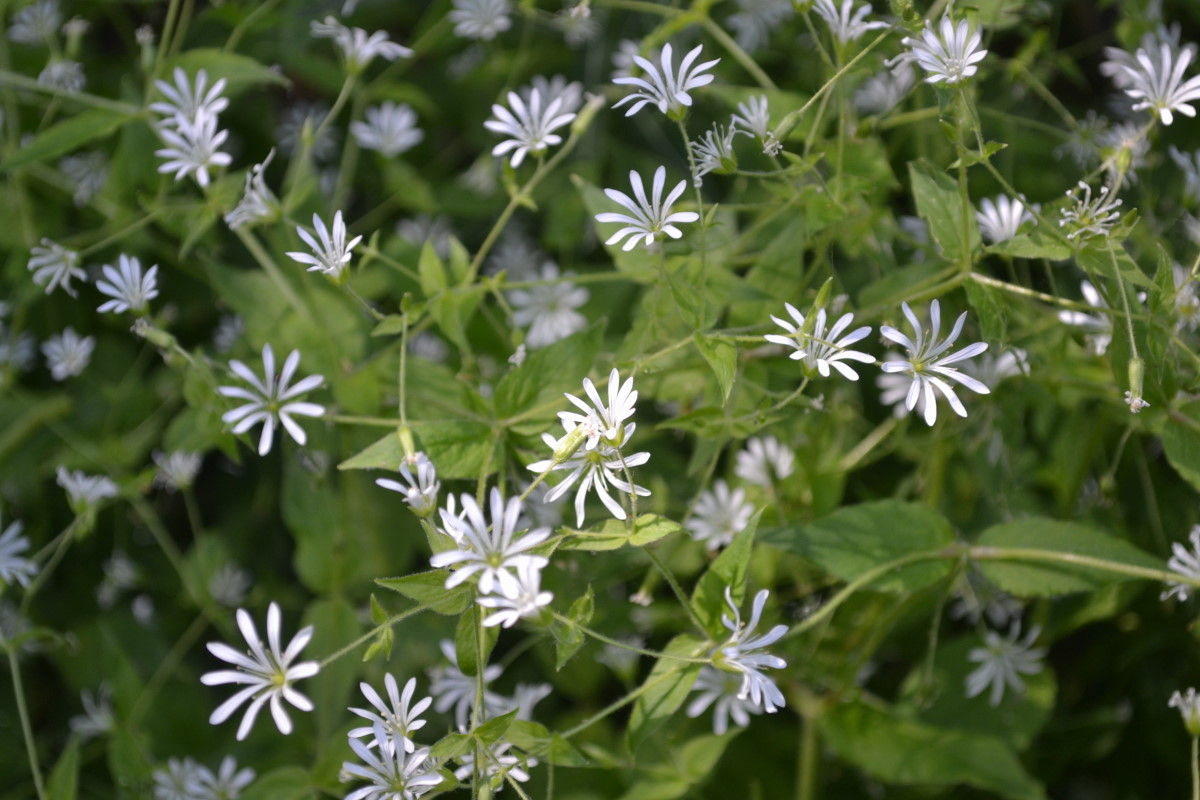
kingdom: Plantae
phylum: Tracheophyta
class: Magnoliopsida
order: Caryophyllales
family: Caryophyllaceae
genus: Stellaria
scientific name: Stellaria nemorum
